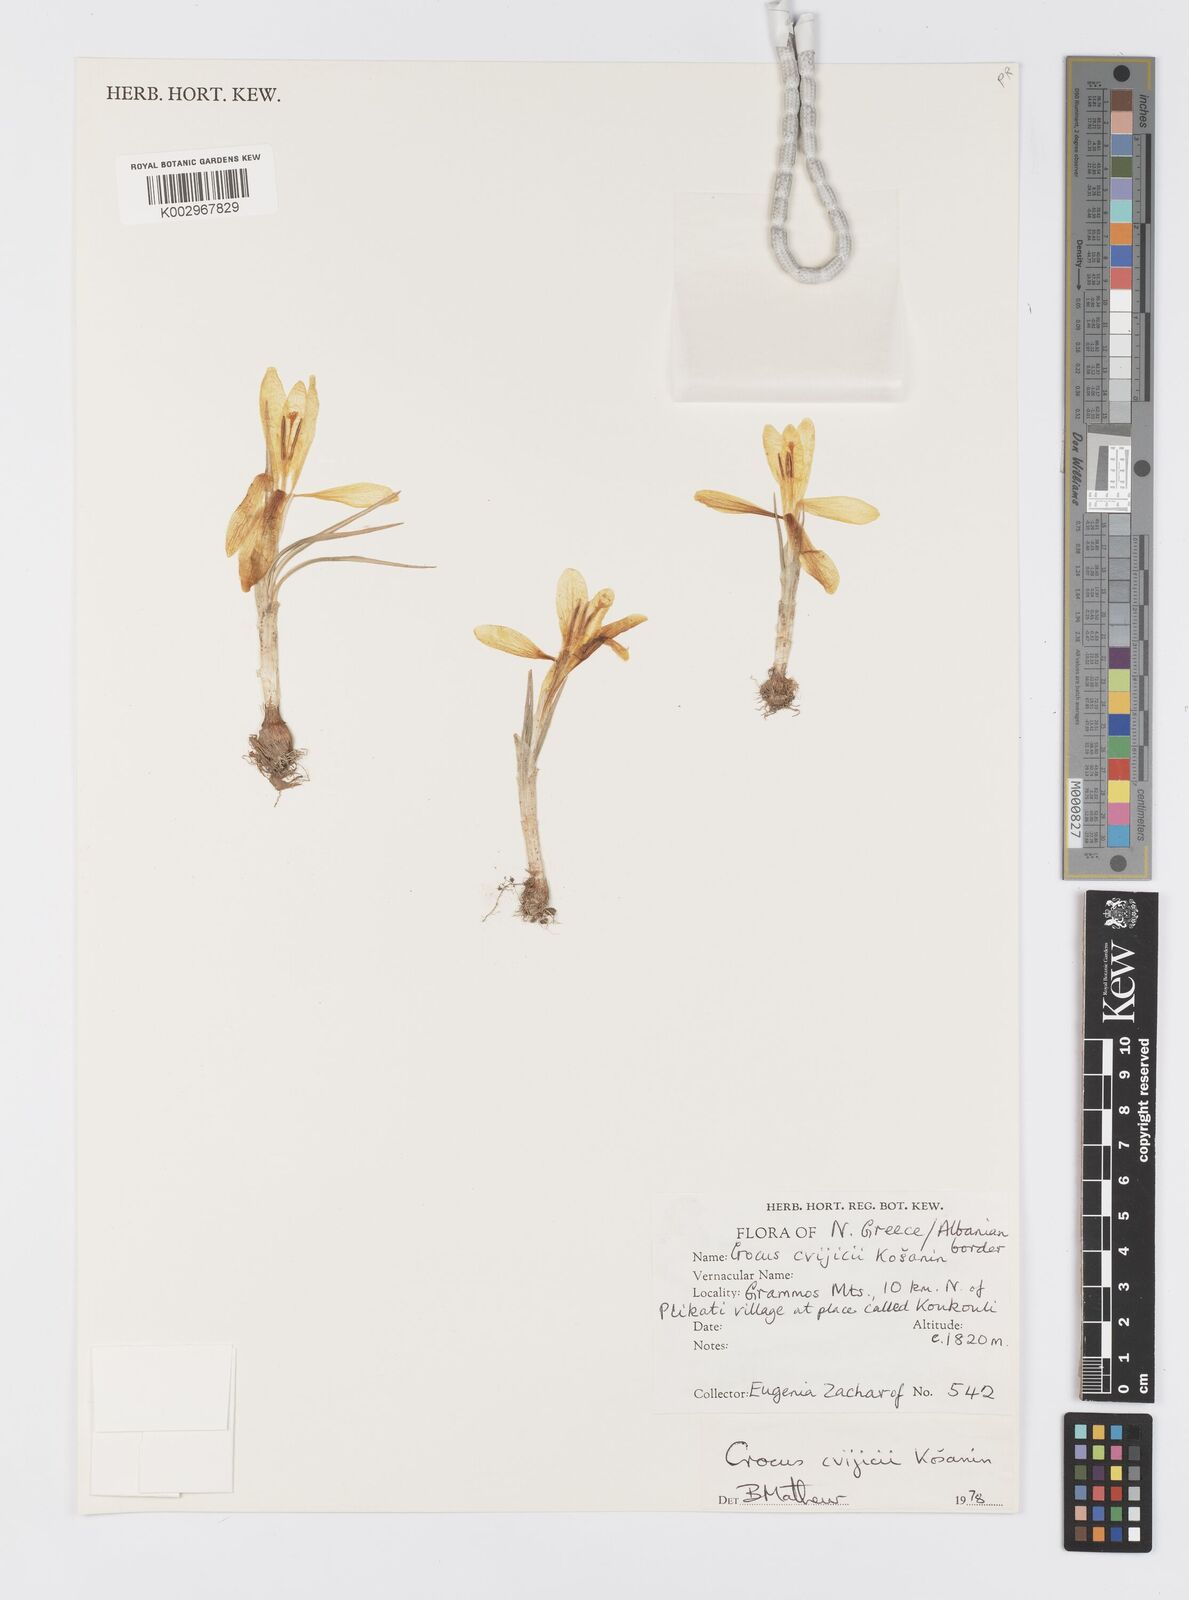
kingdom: Plantae
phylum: Tracheophyta
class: Liliopsida
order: Asparagales
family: Iridaceae
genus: Crocus
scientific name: Crocus cvijicii
